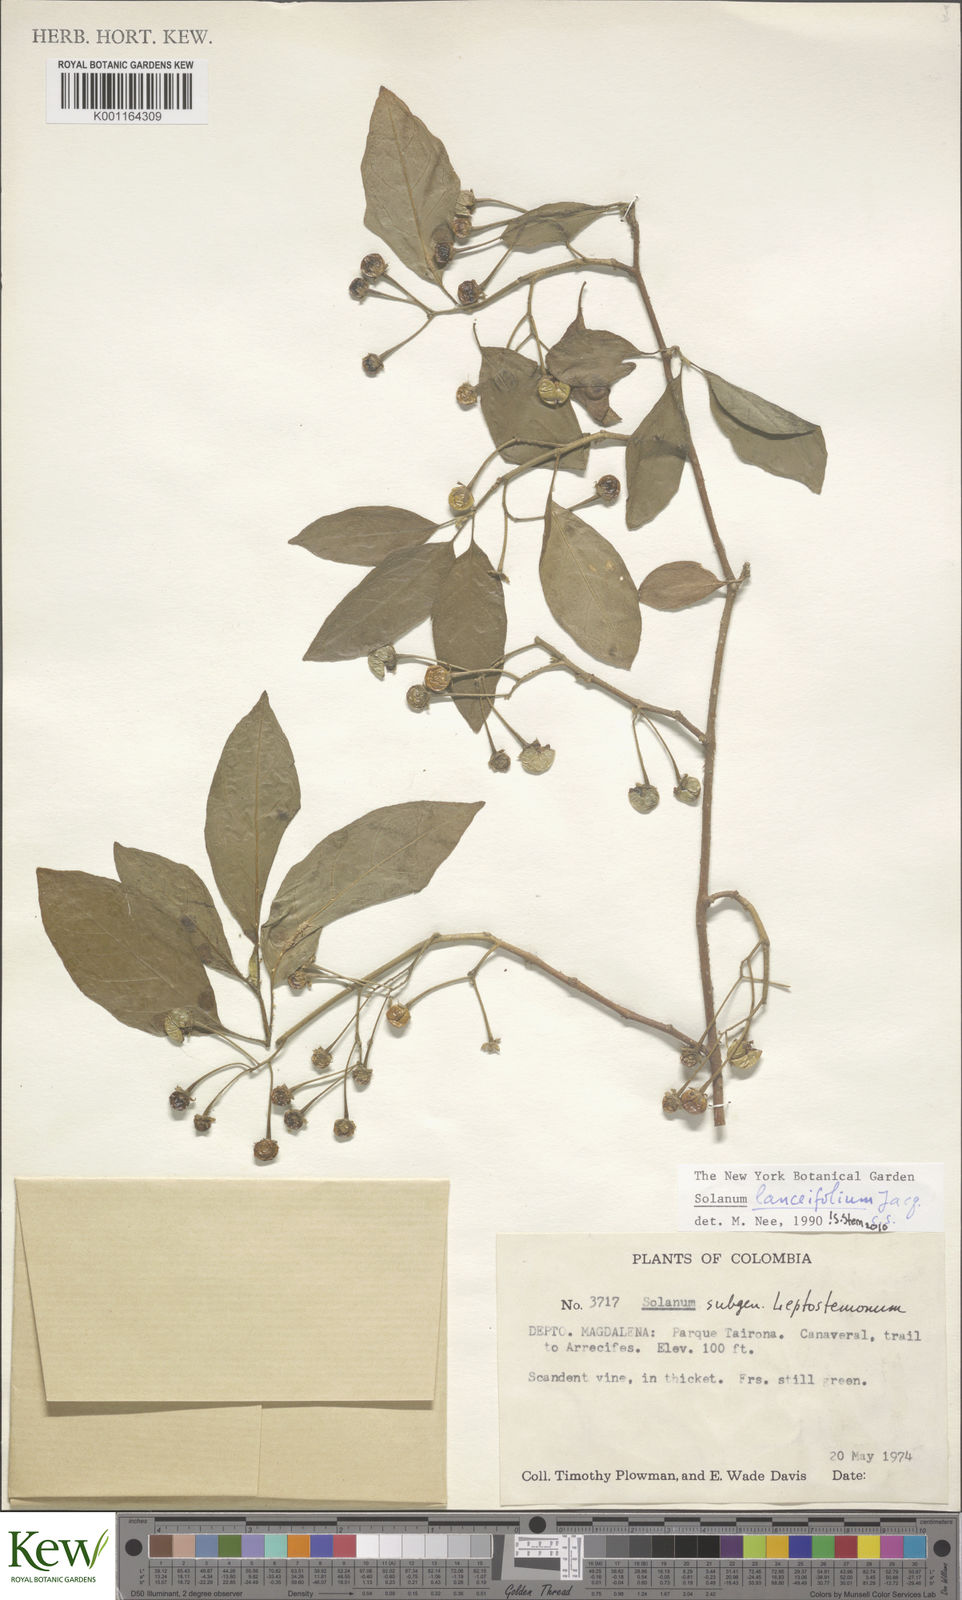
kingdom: Plantae
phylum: Tracheophyta
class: Magnoliopsida
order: Solanales
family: Solanaceae
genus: Solanum
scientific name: Solanum lanceifolium
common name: Lanceleaf nightshade
